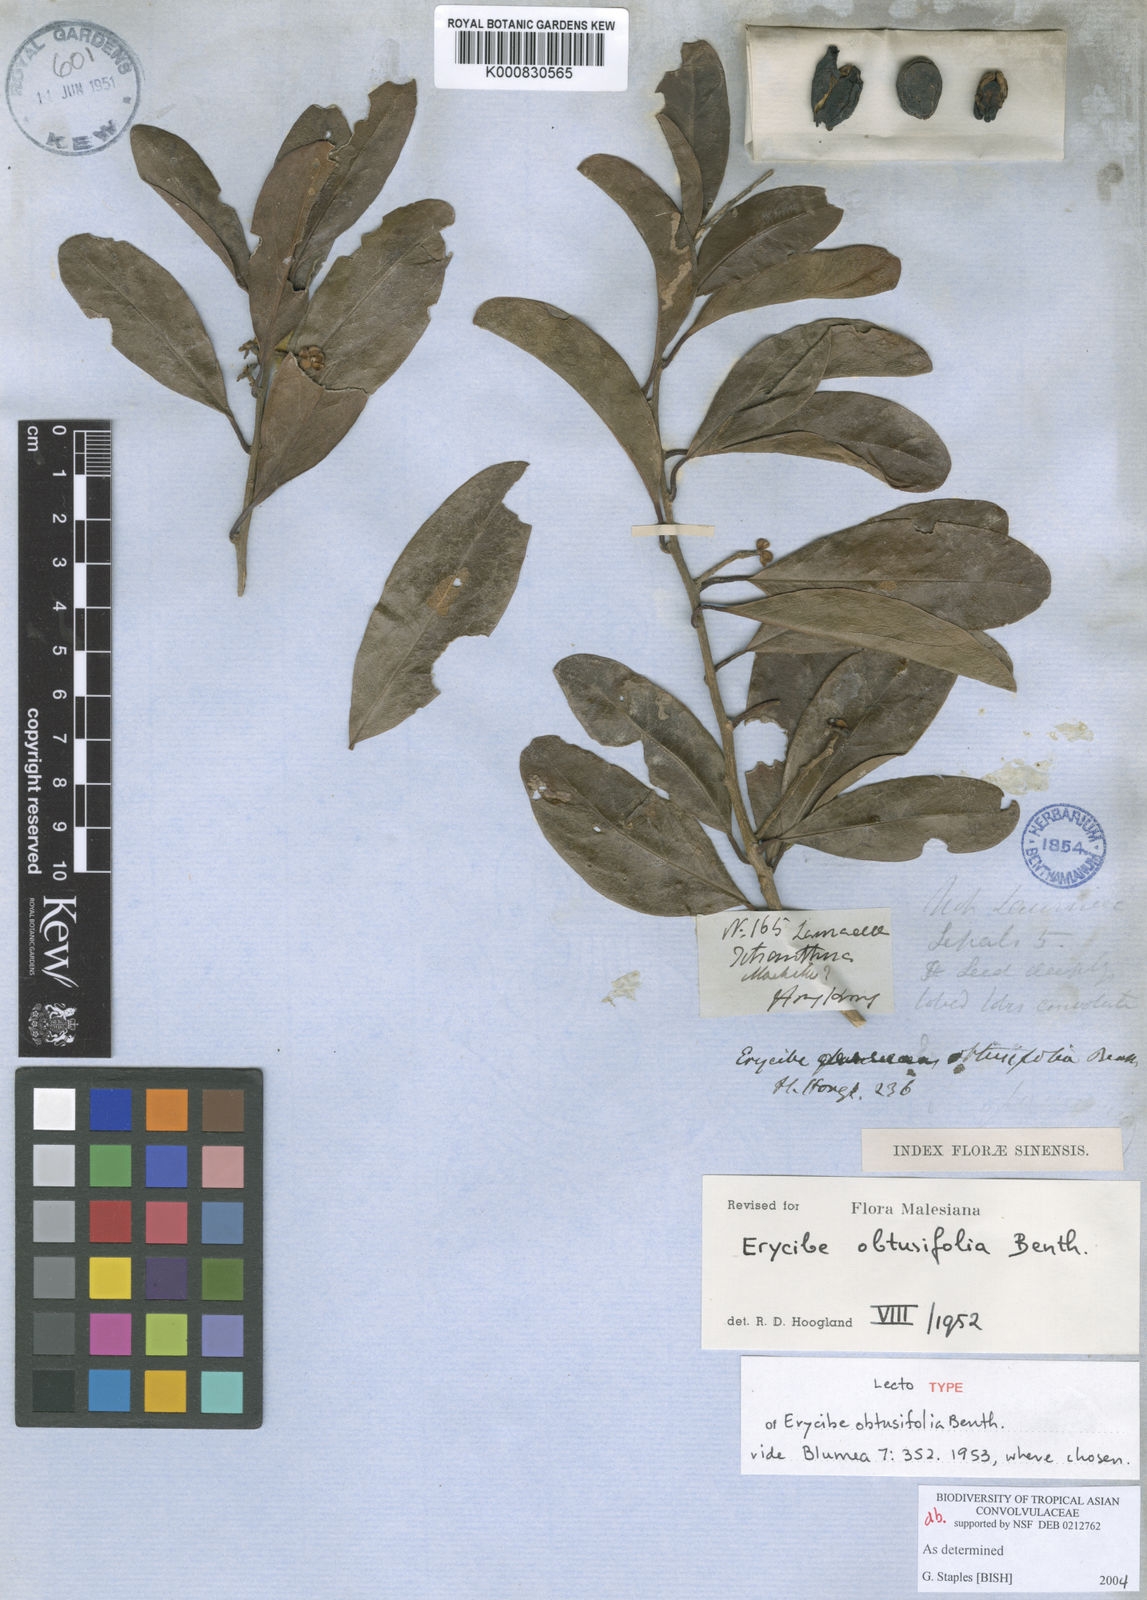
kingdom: Plantae
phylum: Tracheophyta
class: Magnoliopsida
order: Solanales
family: Convolvulaceae
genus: Erycibe
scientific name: Erycibe obtusifolia
